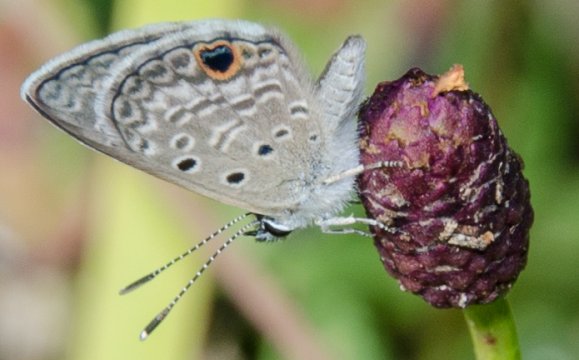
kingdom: Animalia
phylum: Arthropoda
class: Insecta
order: Lepidoptera
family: Lycaenidae
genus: Hemiargus
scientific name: Hemiargus ceraunus
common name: Ceraunus Blue
